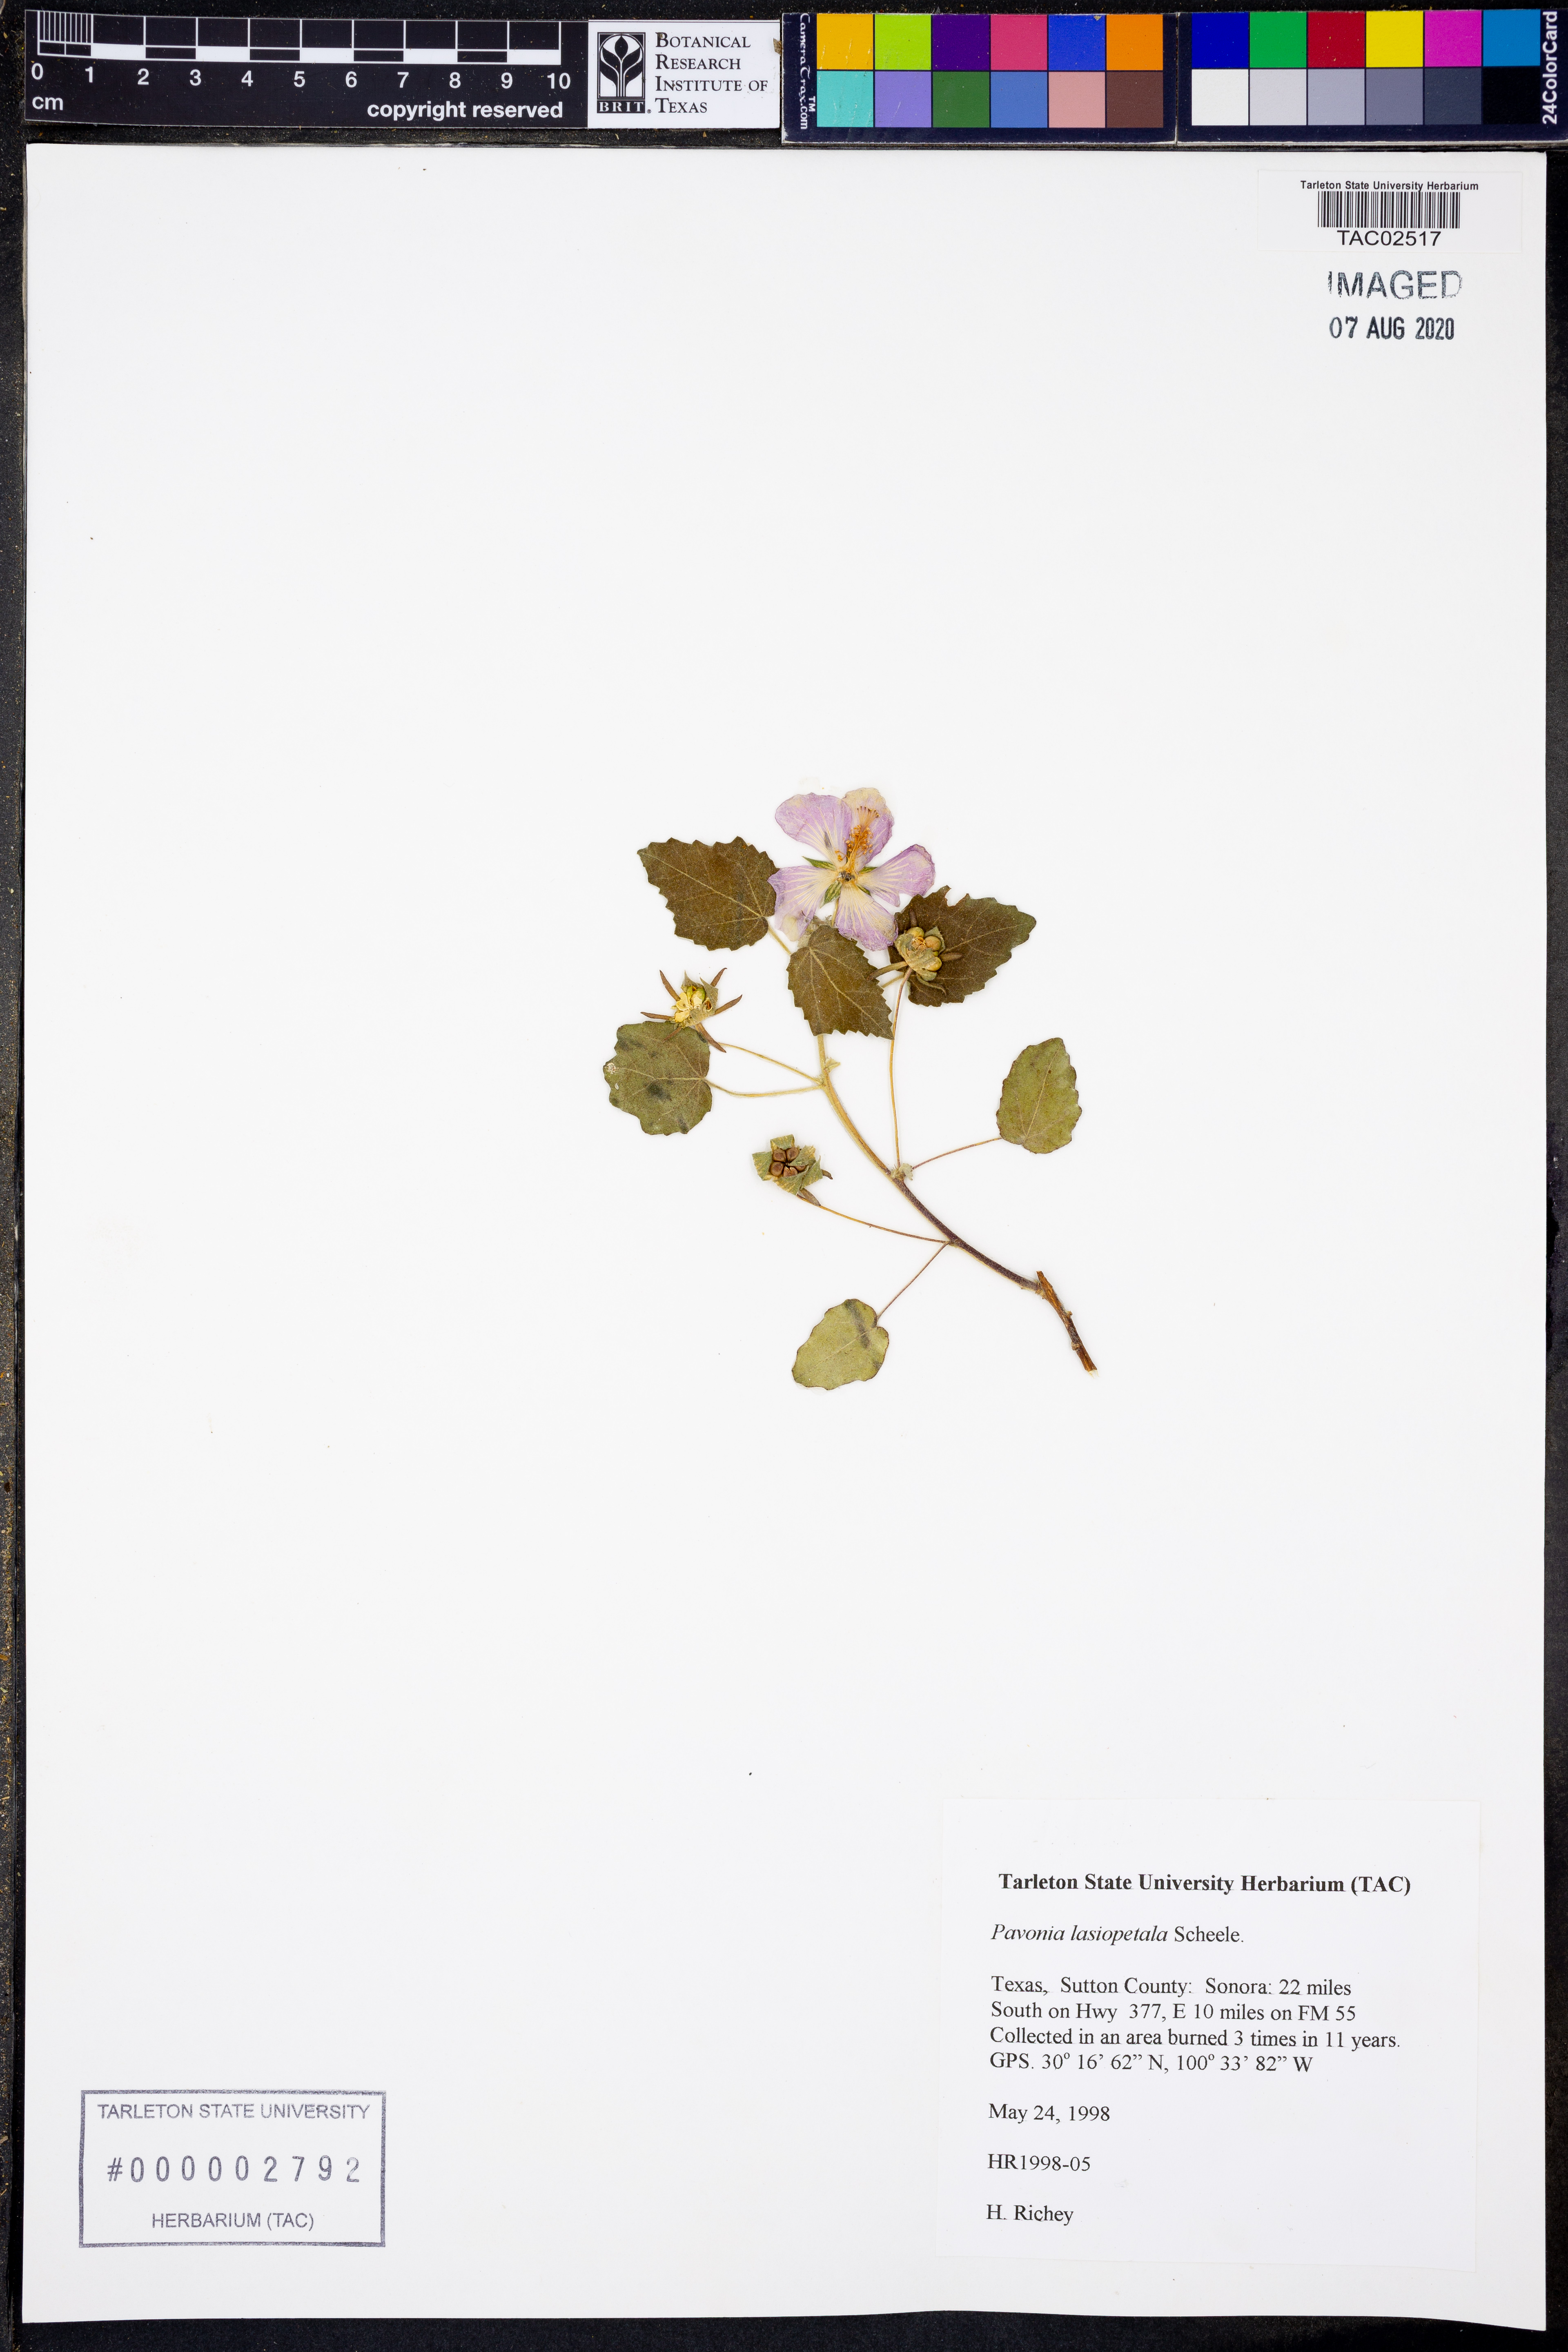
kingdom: Plantae
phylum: Tracheophyta
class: Magnoliopsida
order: Malvales
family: Malvaceae
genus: Pavonia
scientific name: Pavonia lasiopetala
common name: Texas swamp-mallow
